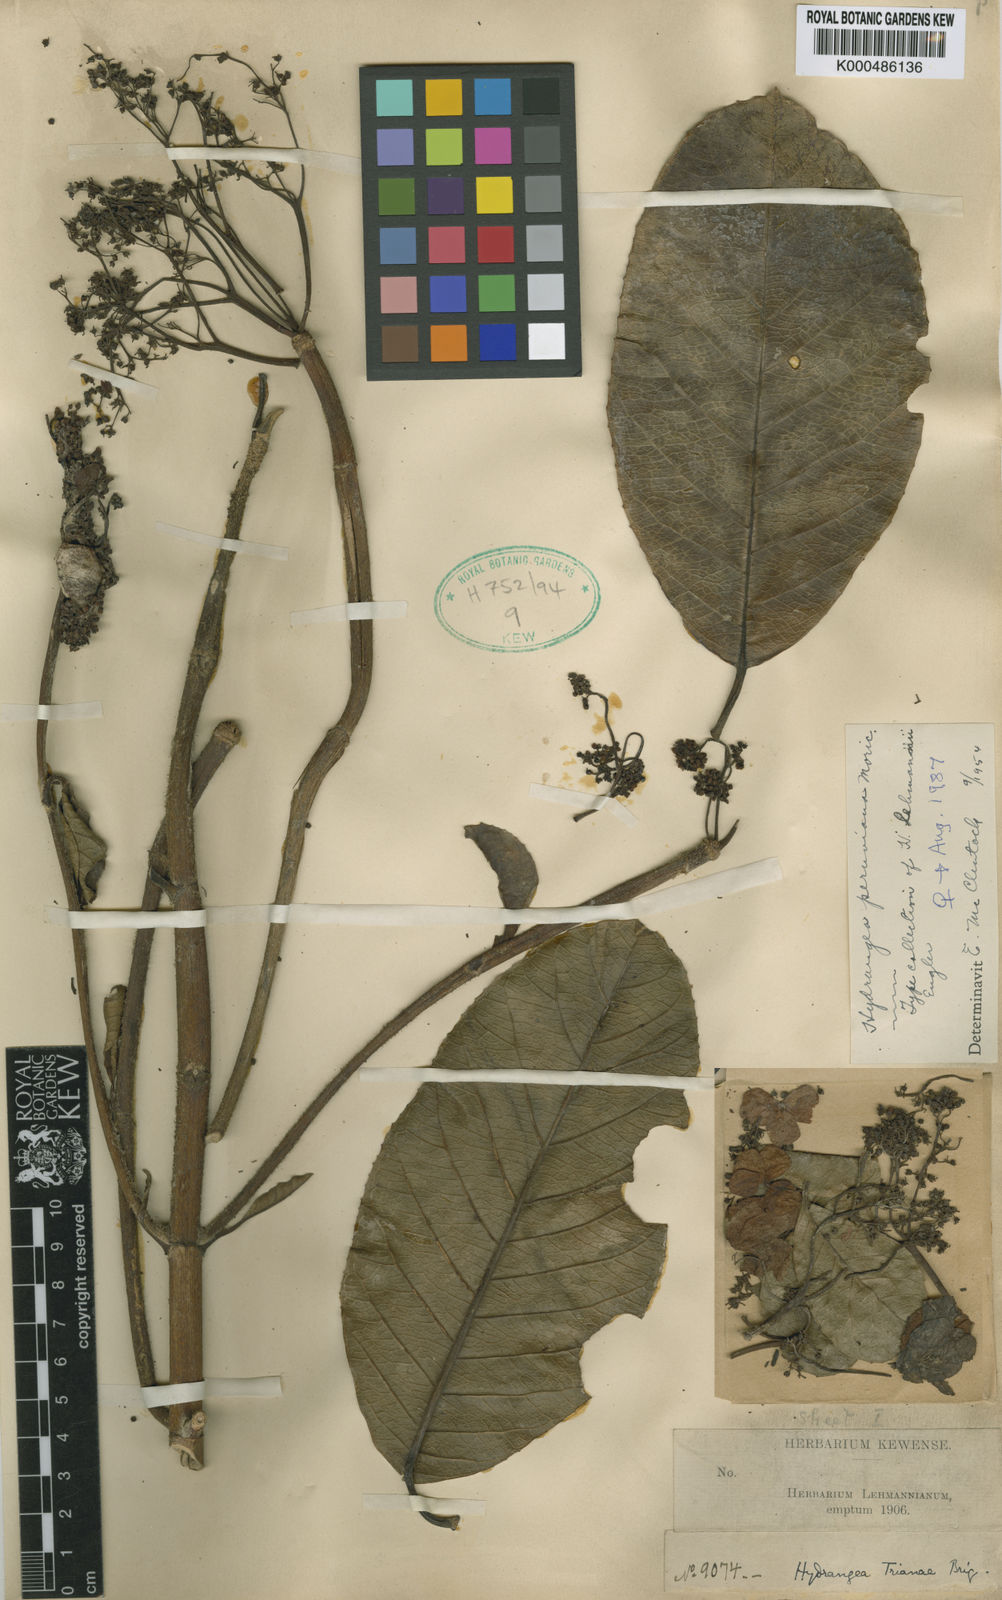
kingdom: Plantae
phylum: Tracheophyta
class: Magnoliopsida
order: Cornales
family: Hydrangeaceae
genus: Hydrangea
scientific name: Hydrangea
